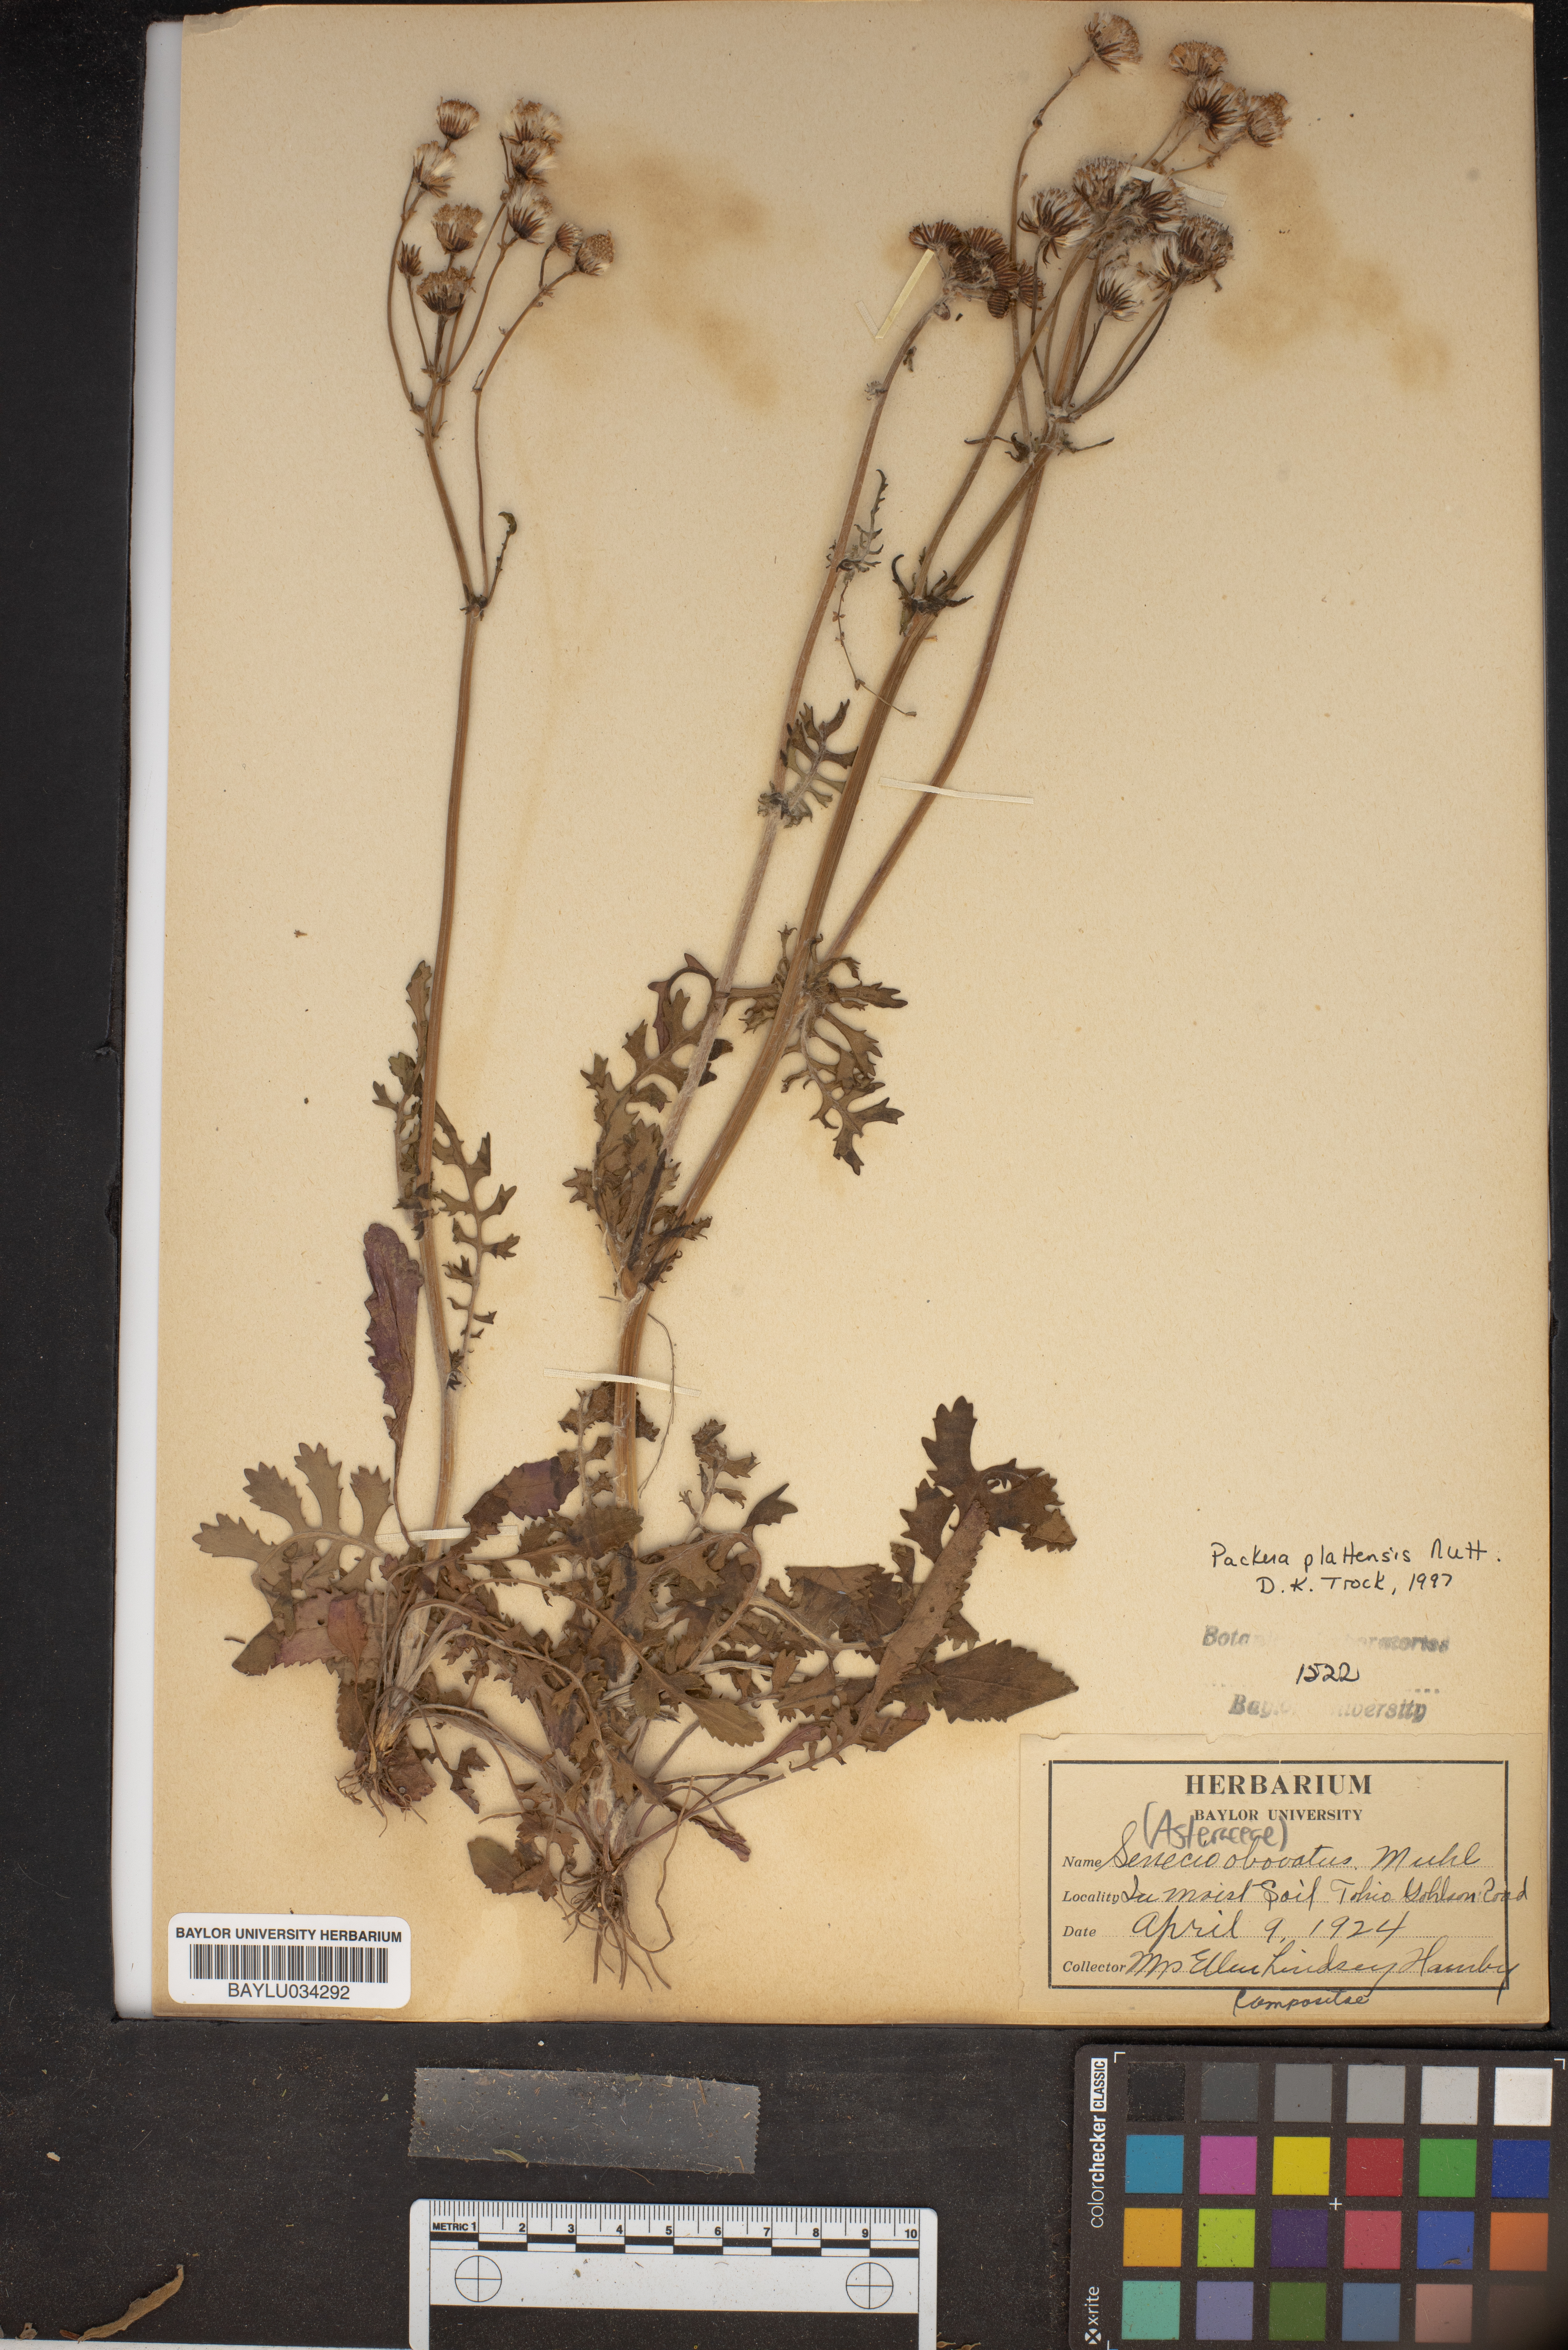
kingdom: Plantae
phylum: Tracheophyta
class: Magnoliopsida
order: Asterales
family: Asteraceae
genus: Senecio
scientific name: Senecio provincialis
